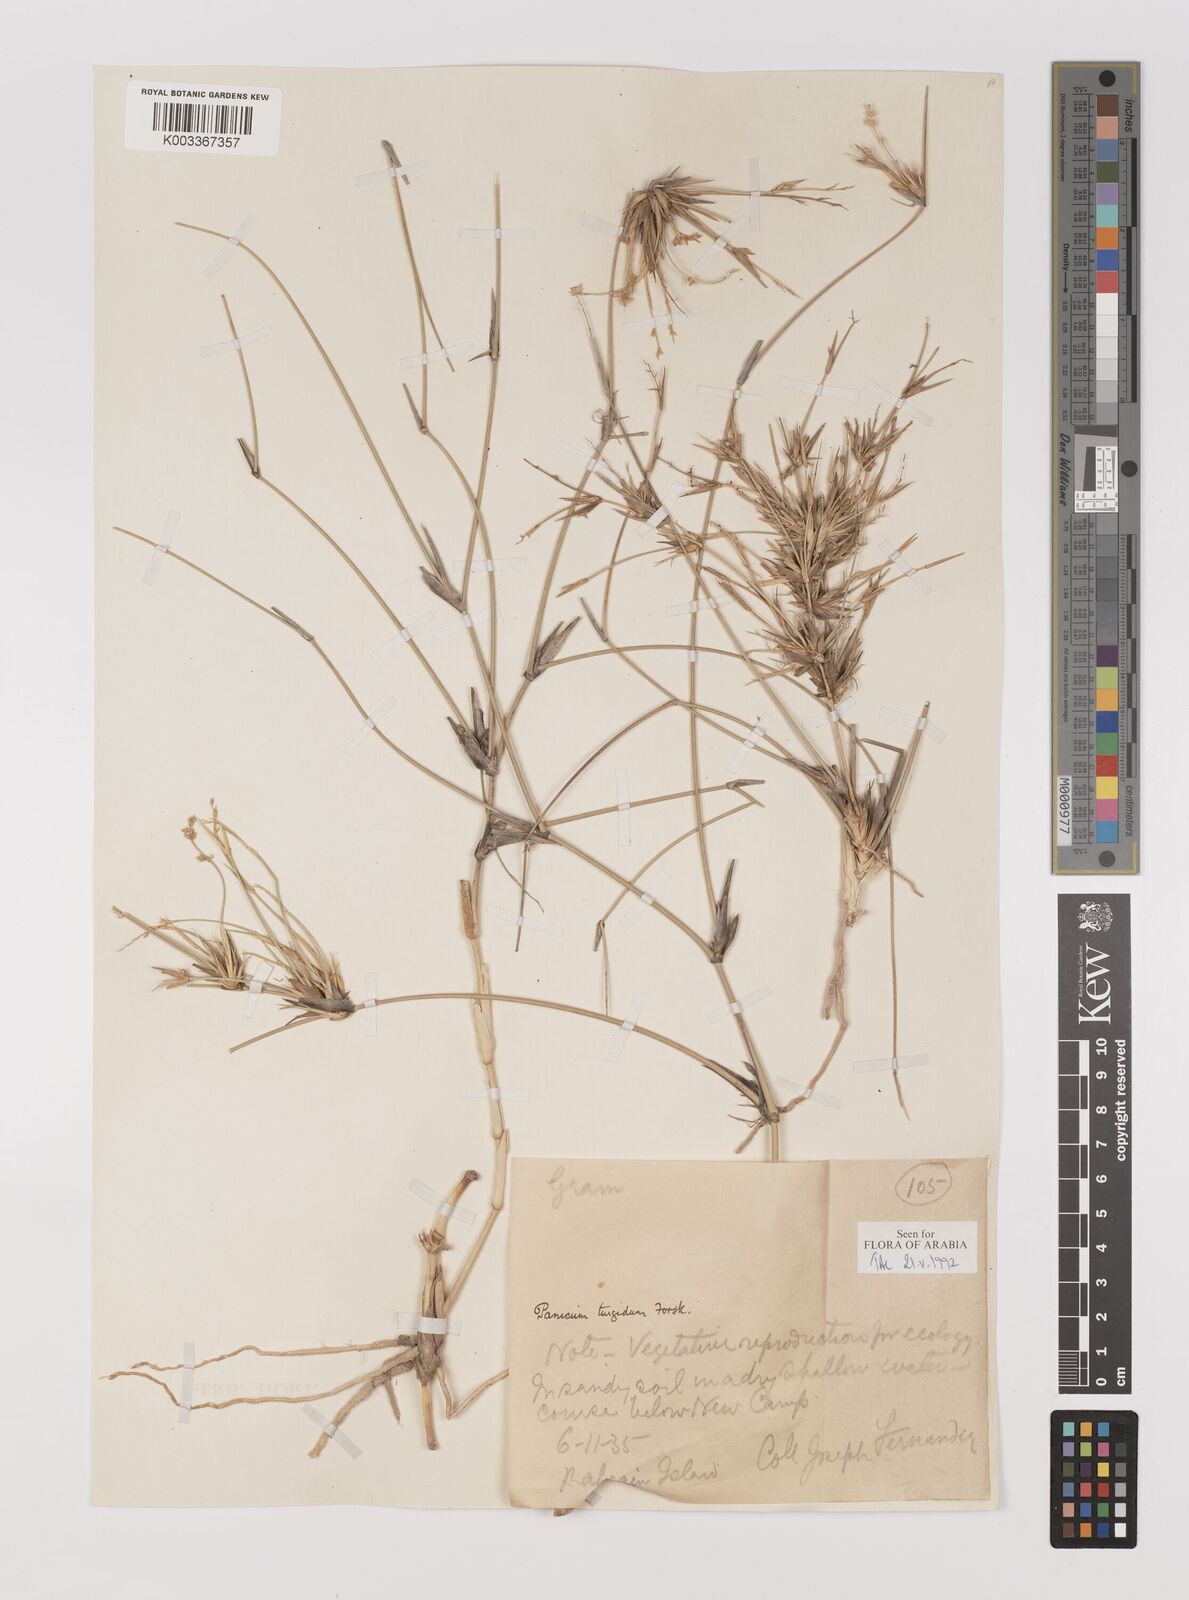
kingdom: Plantae
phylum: Tracheophyta
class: Liliopsida
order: Poales
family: Poaceae
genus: Panicum
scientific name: Panicum turgidum
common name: Desert grass
